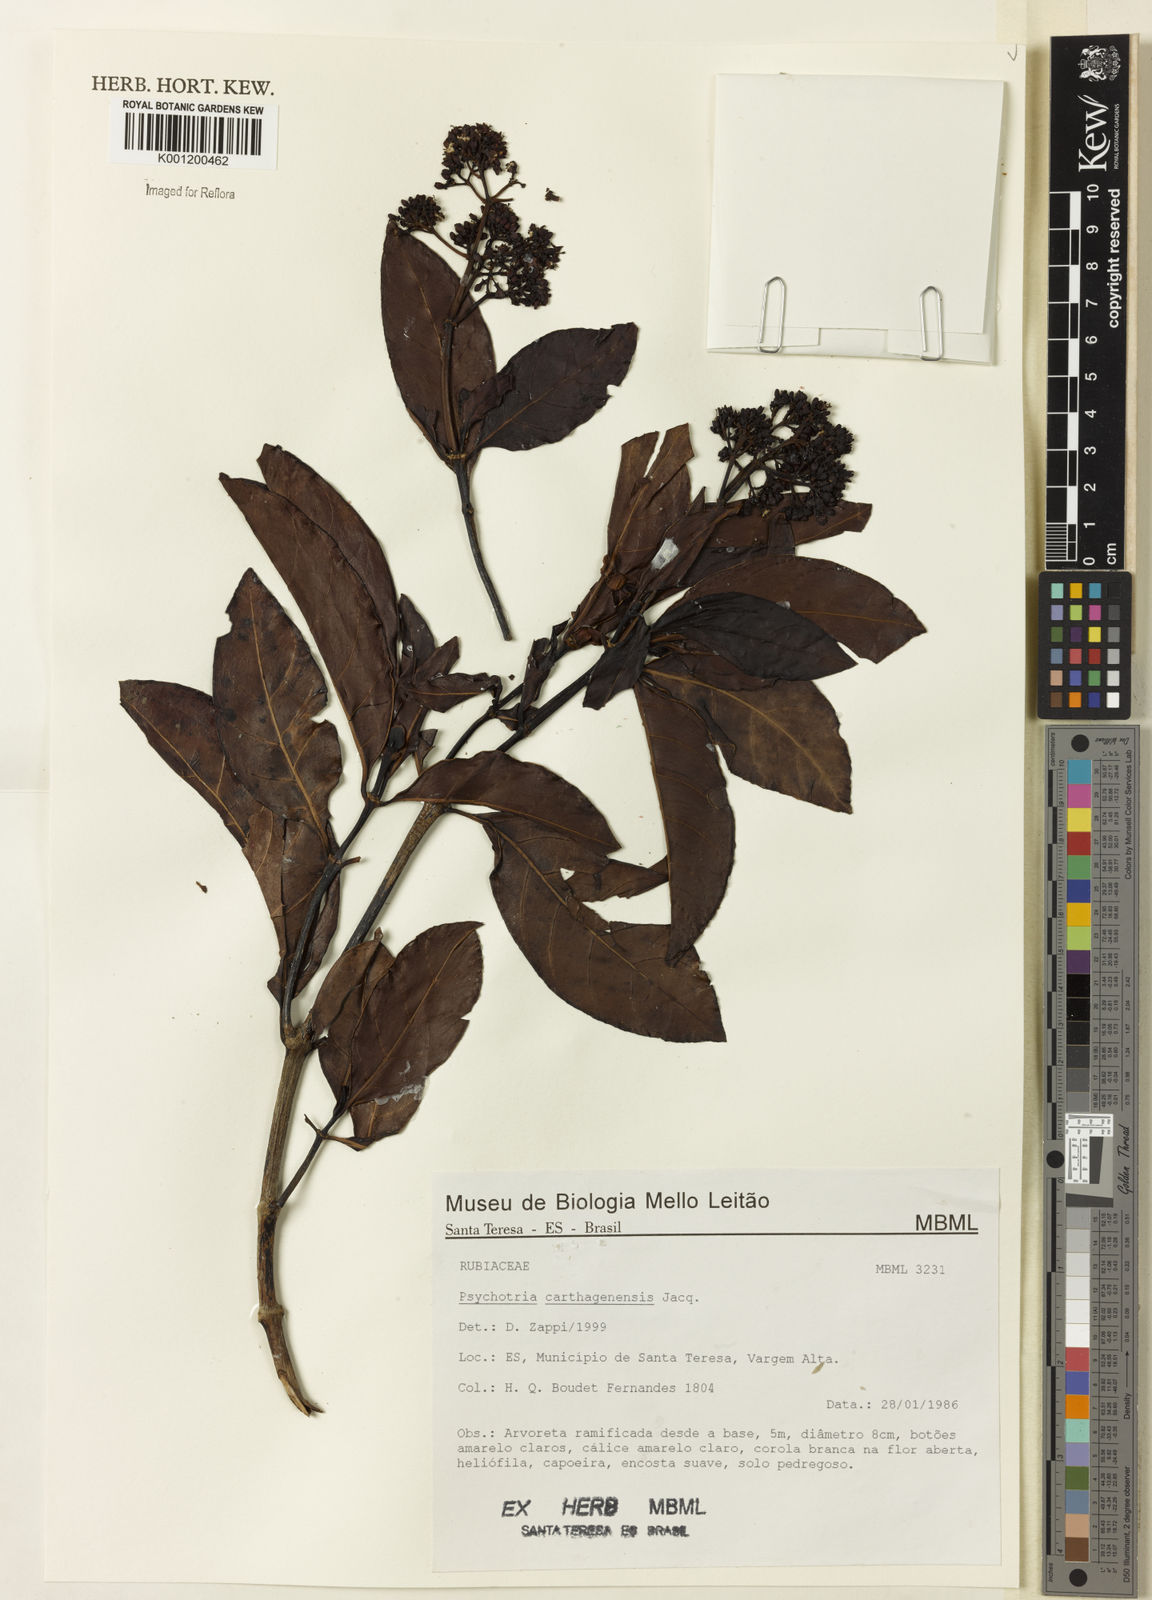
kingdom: Plantae
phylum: Tracheophyta
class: Magnoliopsida
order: Gentianales
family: Rubiaceae
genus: Psychotria
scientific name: Psychotria carthagenensis
